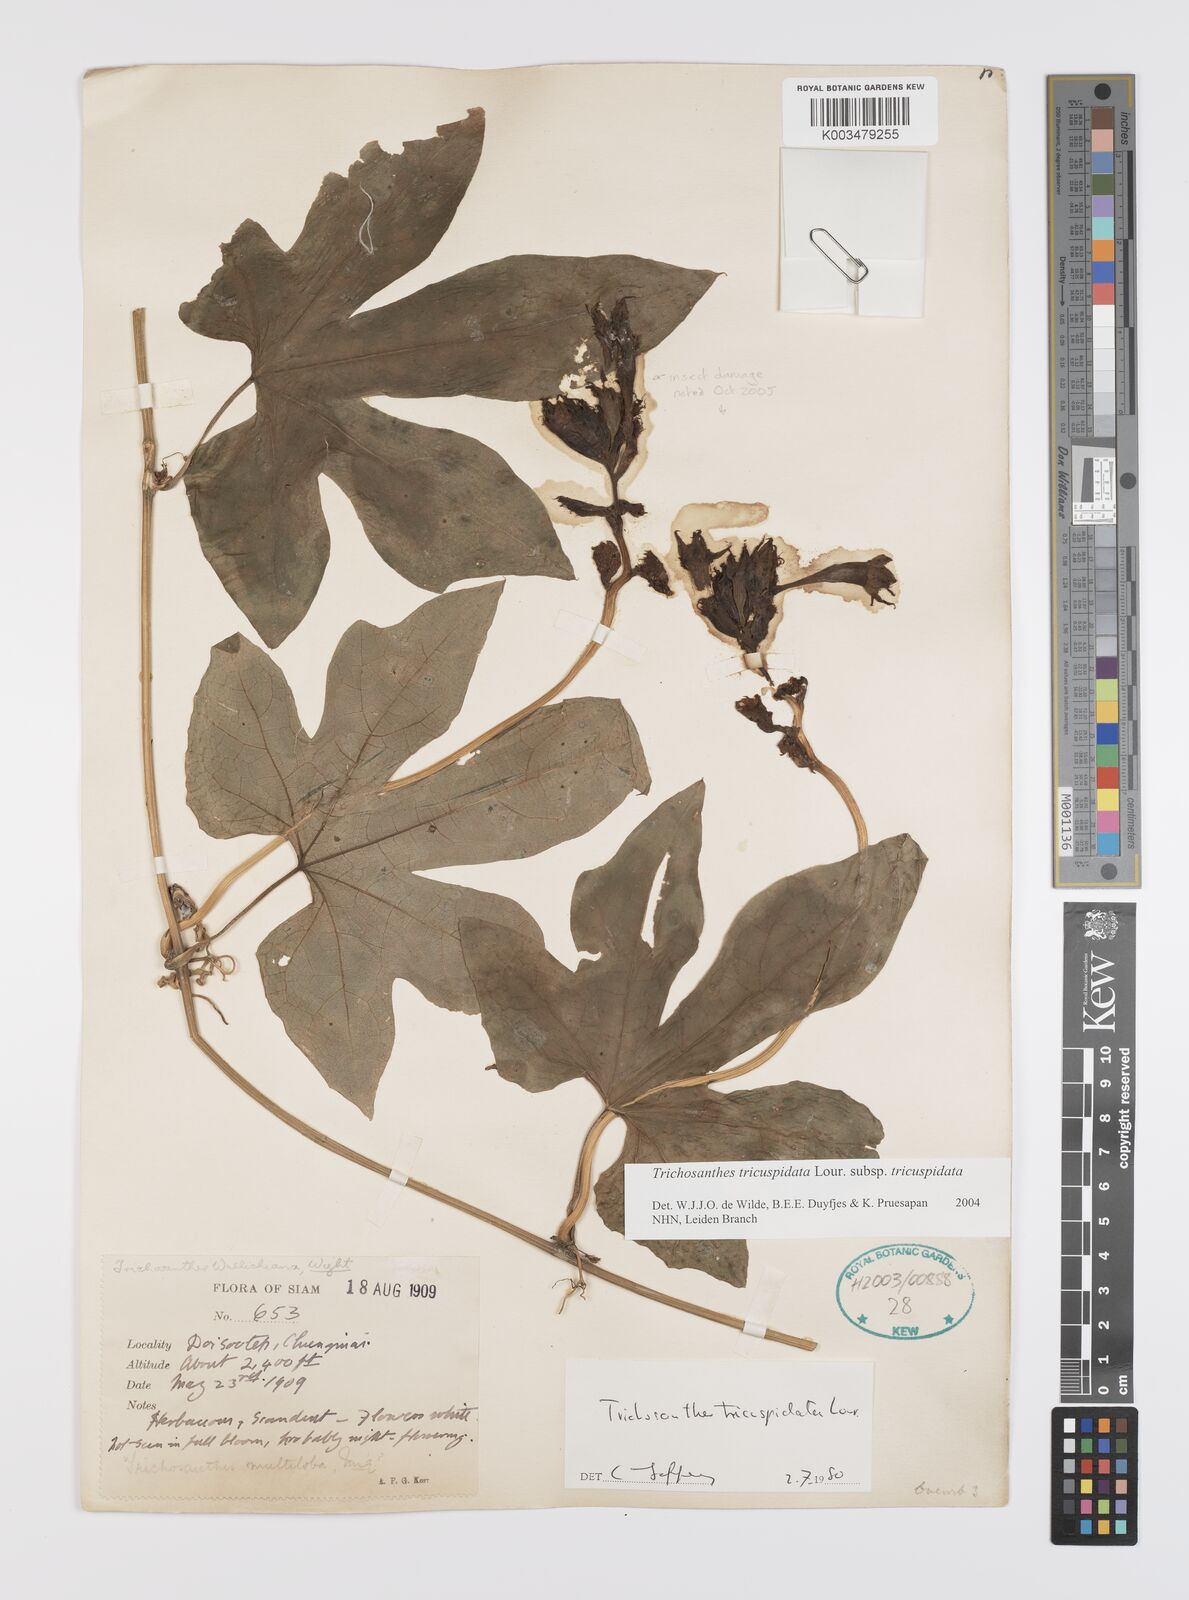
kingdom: Plantae
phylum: Tracheophyta
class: Magnoliopsida
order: Cucurbitales
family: Cucurbitaceae
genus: Trichosanthes
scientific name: Trichosanthes tricuspidata
